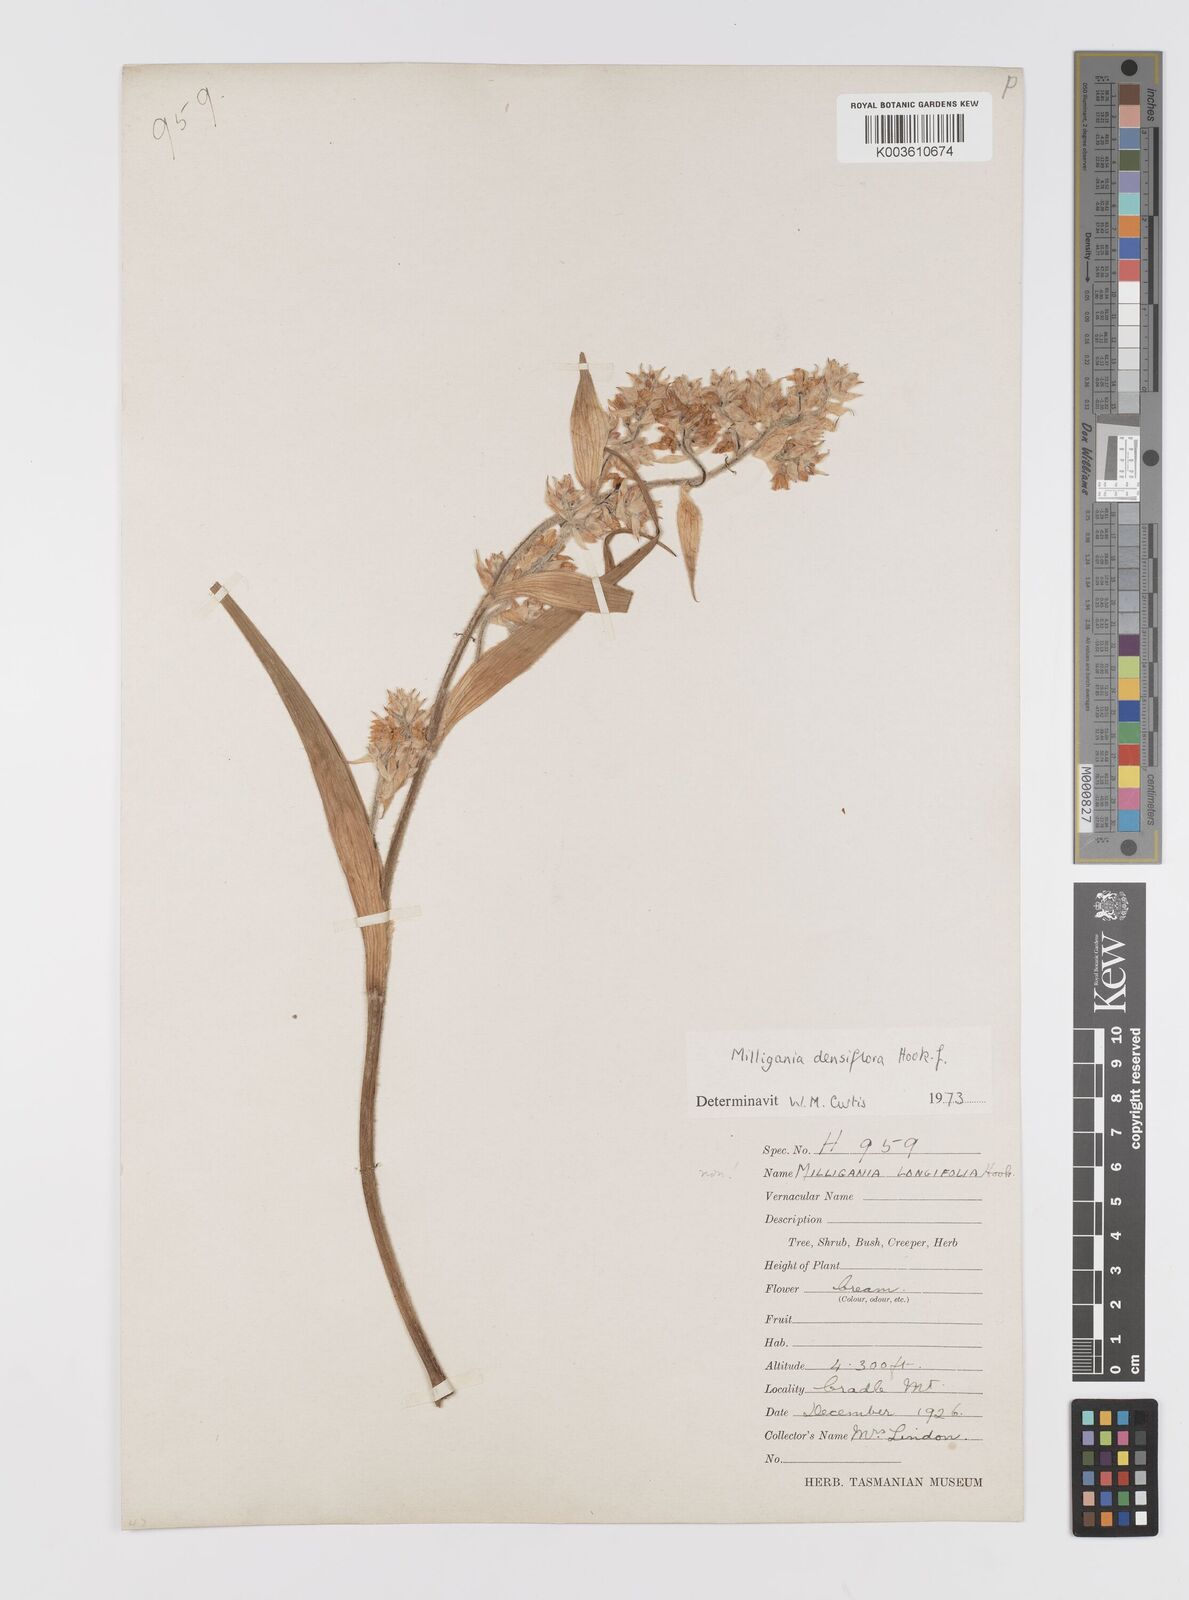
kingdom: Plantae
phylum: Tracheophyta
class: Liliopsida
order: Asparagales
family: Asteliaceae
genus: Milligania
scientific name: Milligania densiflora
